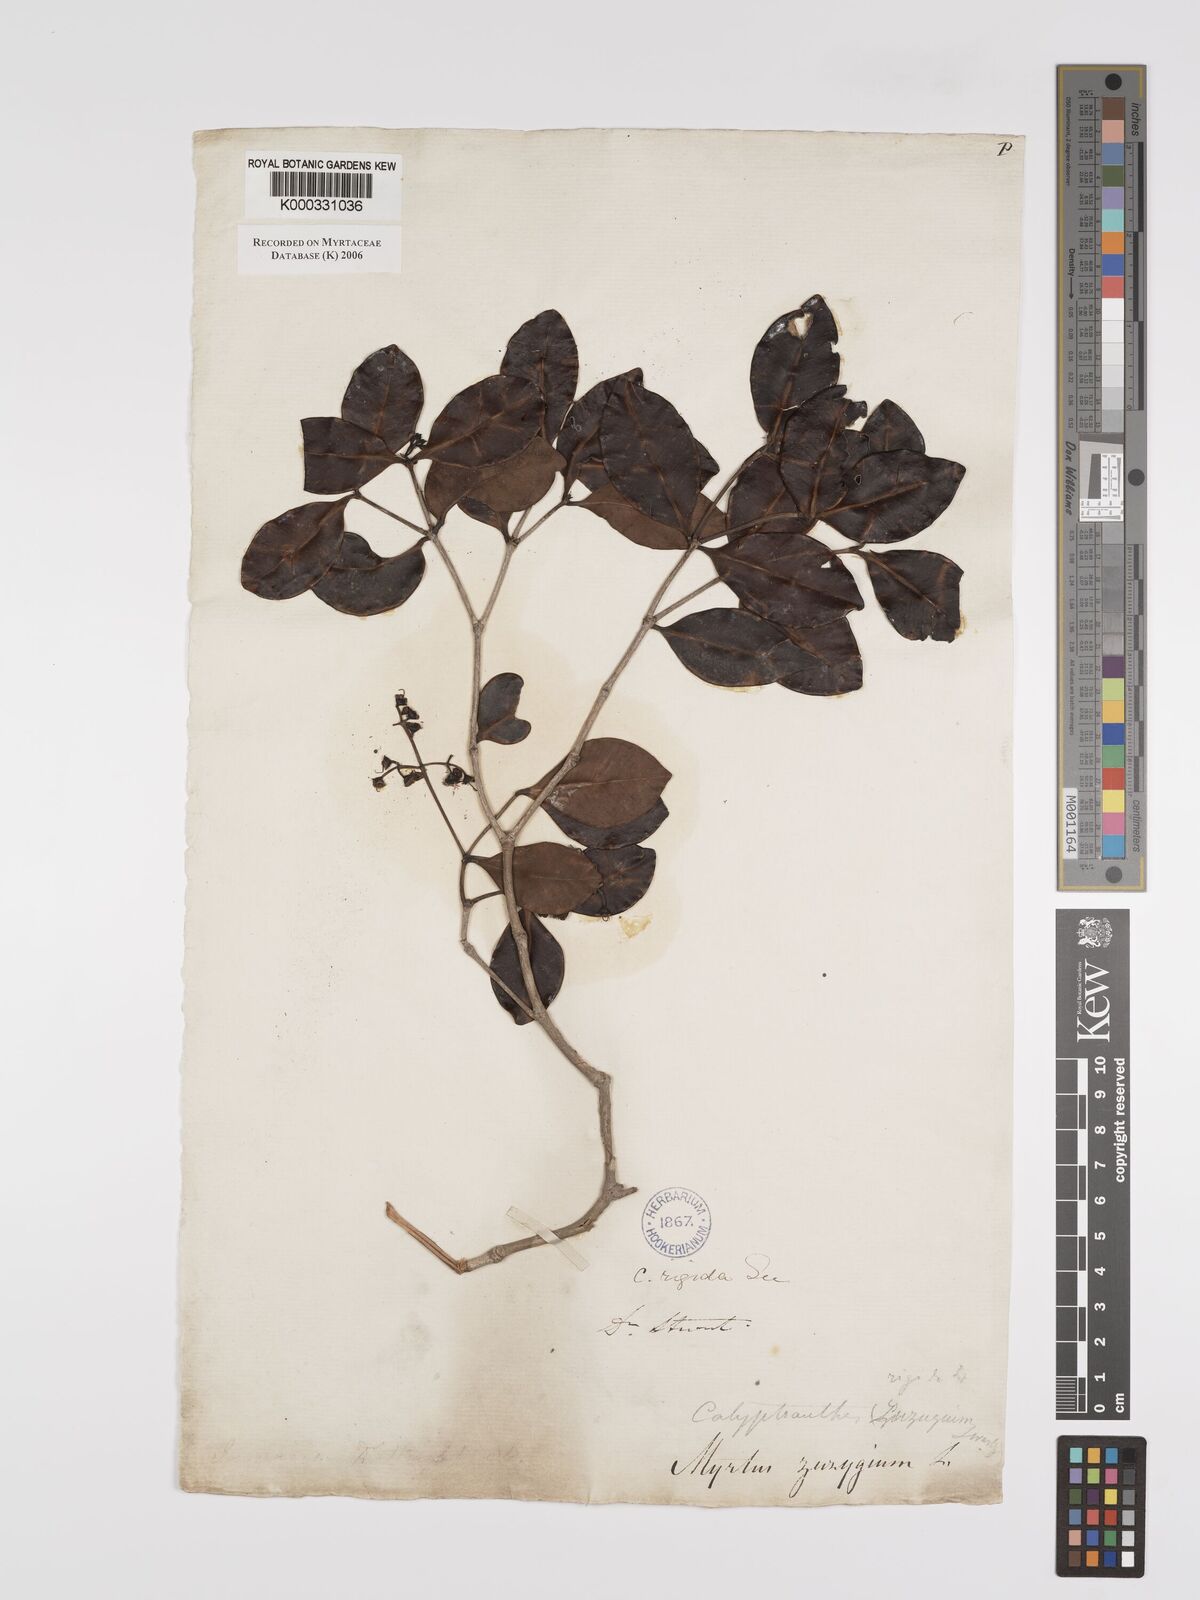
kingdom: Plantae
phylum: Tracheophyta
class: Magnoliopsida
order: Myrtales
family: Myrtaceae
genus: Myrcia
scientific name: Myrcia rigida
